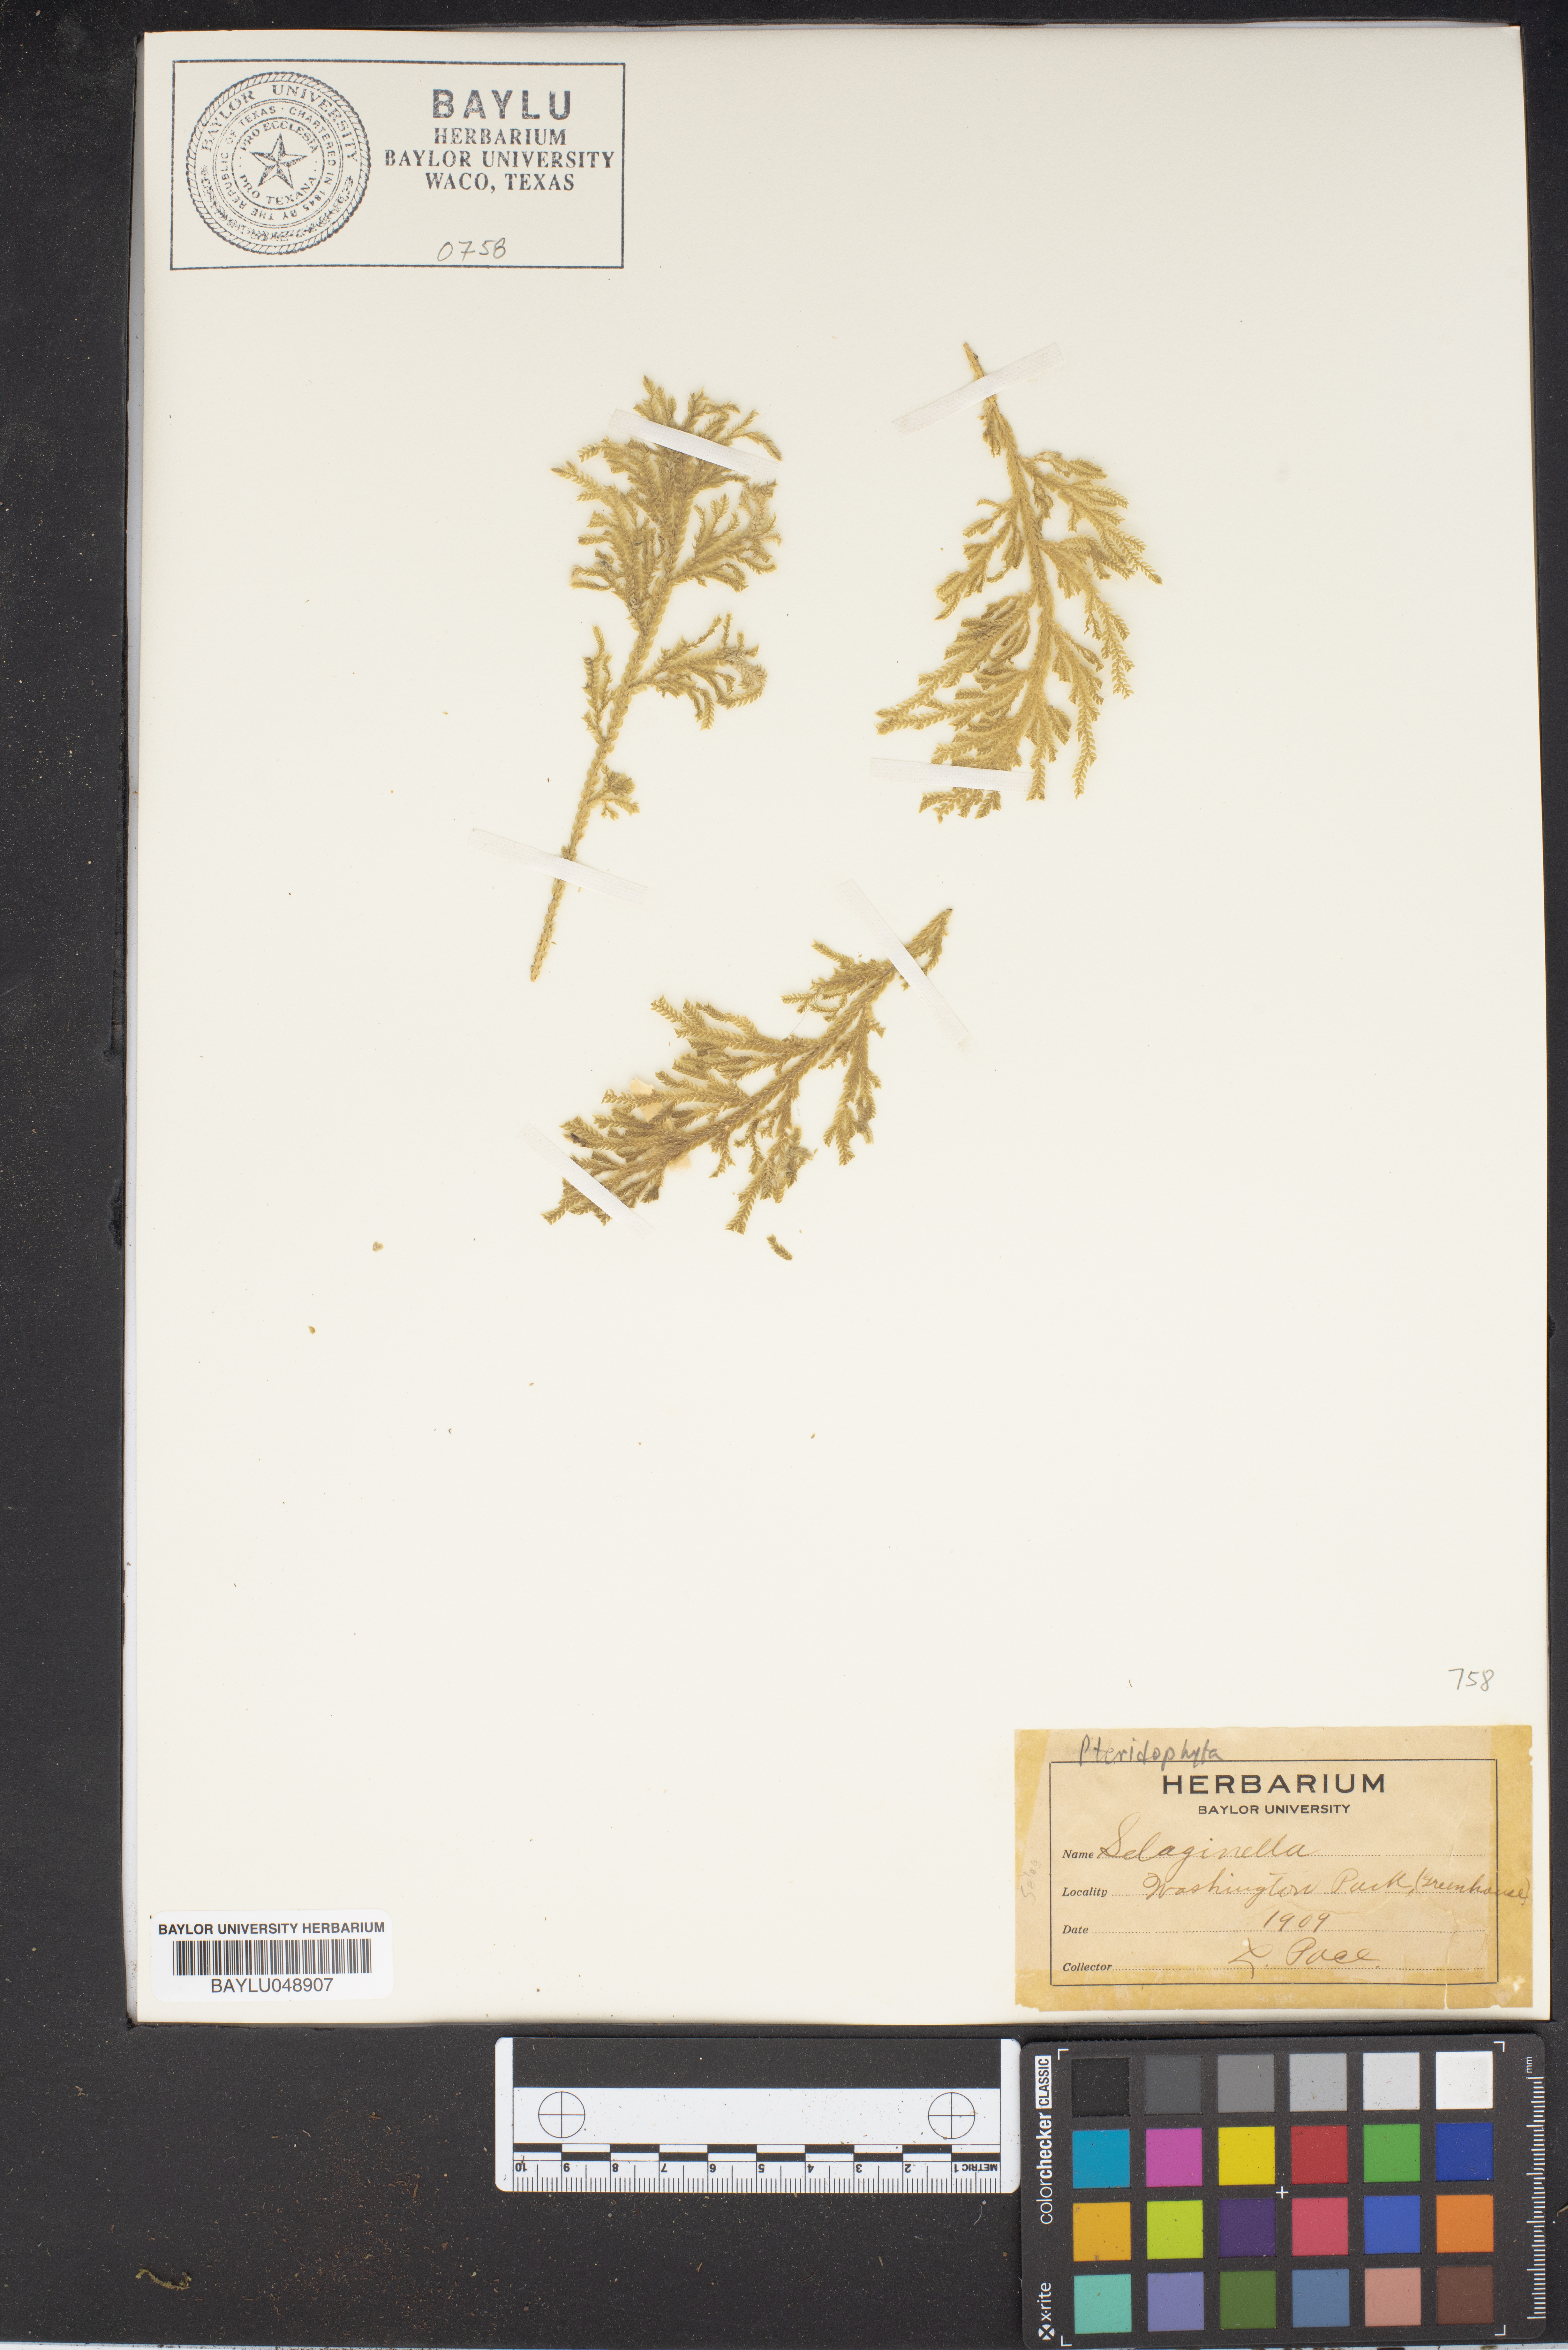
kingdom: Plantae
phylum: Tracheophyta
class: Lycopodiopsida
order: Selaginellales
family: Selaginellaceae
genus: Selaginella
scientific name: Selaginella
